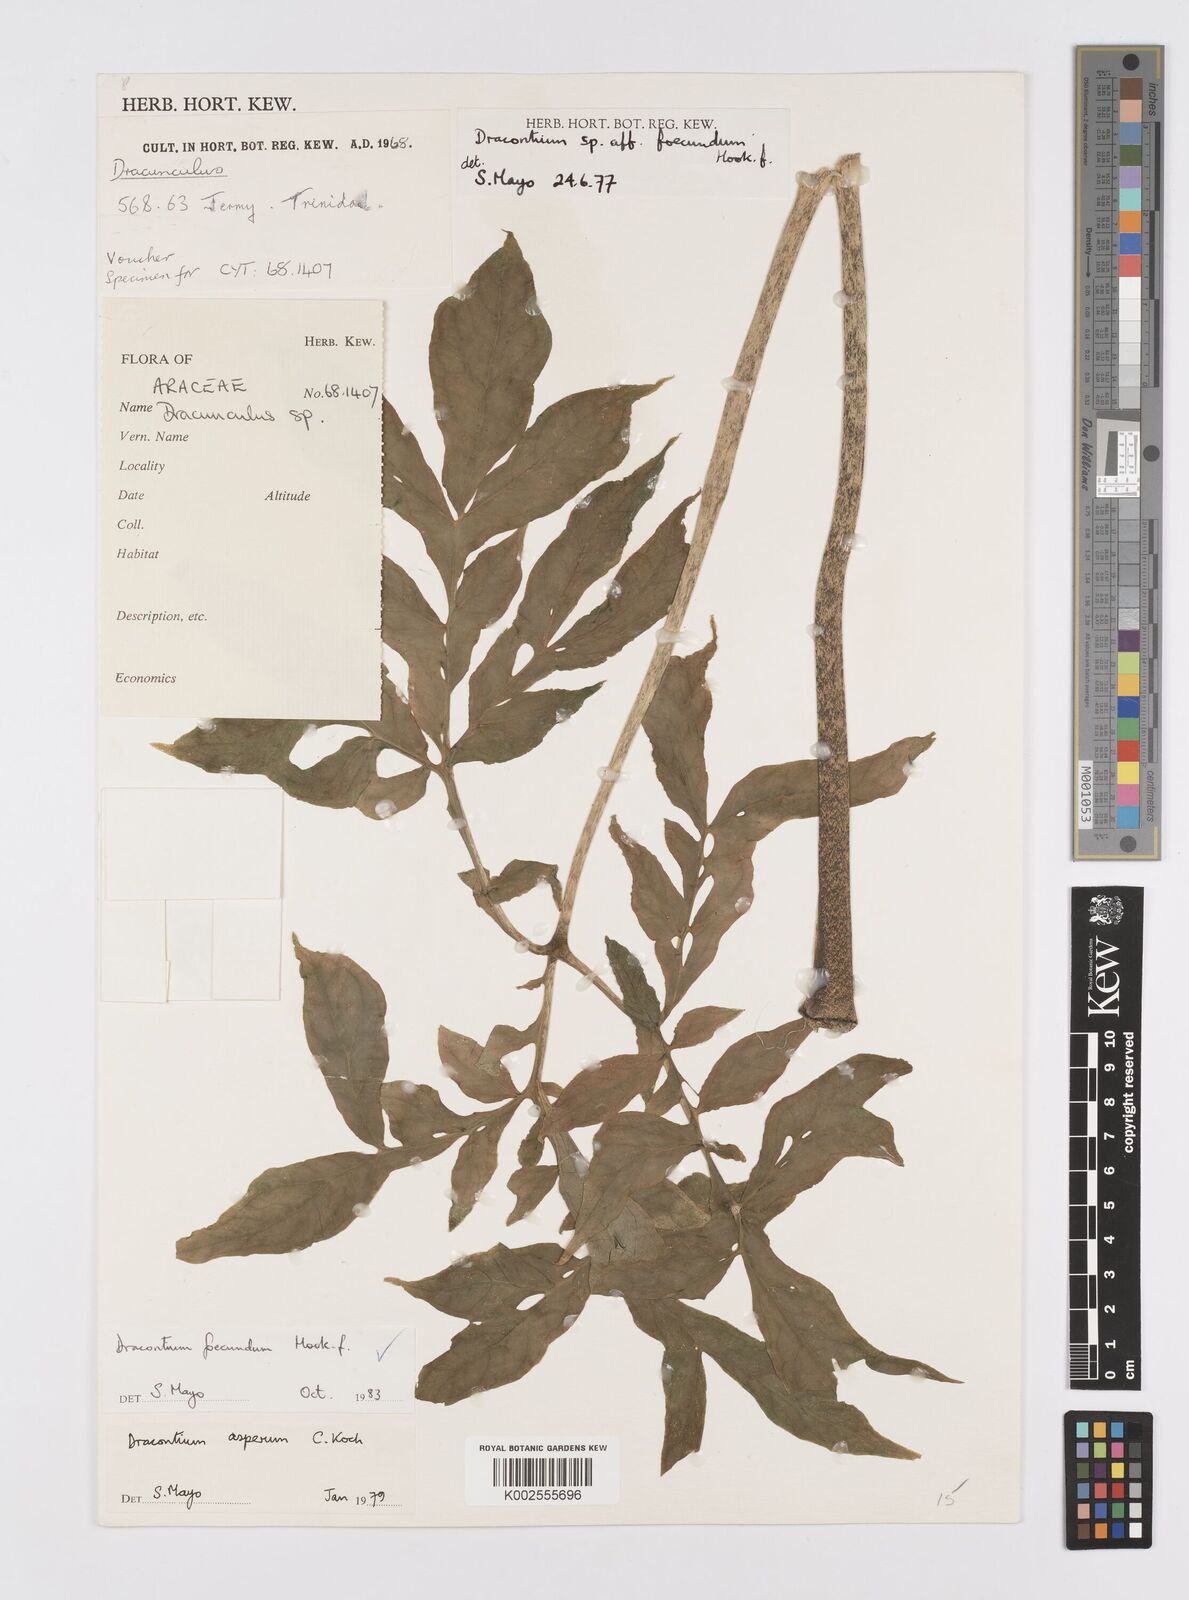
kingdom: Plantae
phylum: Tracheophyta
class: Liliopsida
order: Alismatales
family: Araceae
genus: Dracontium
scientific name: Dracontium asperum
